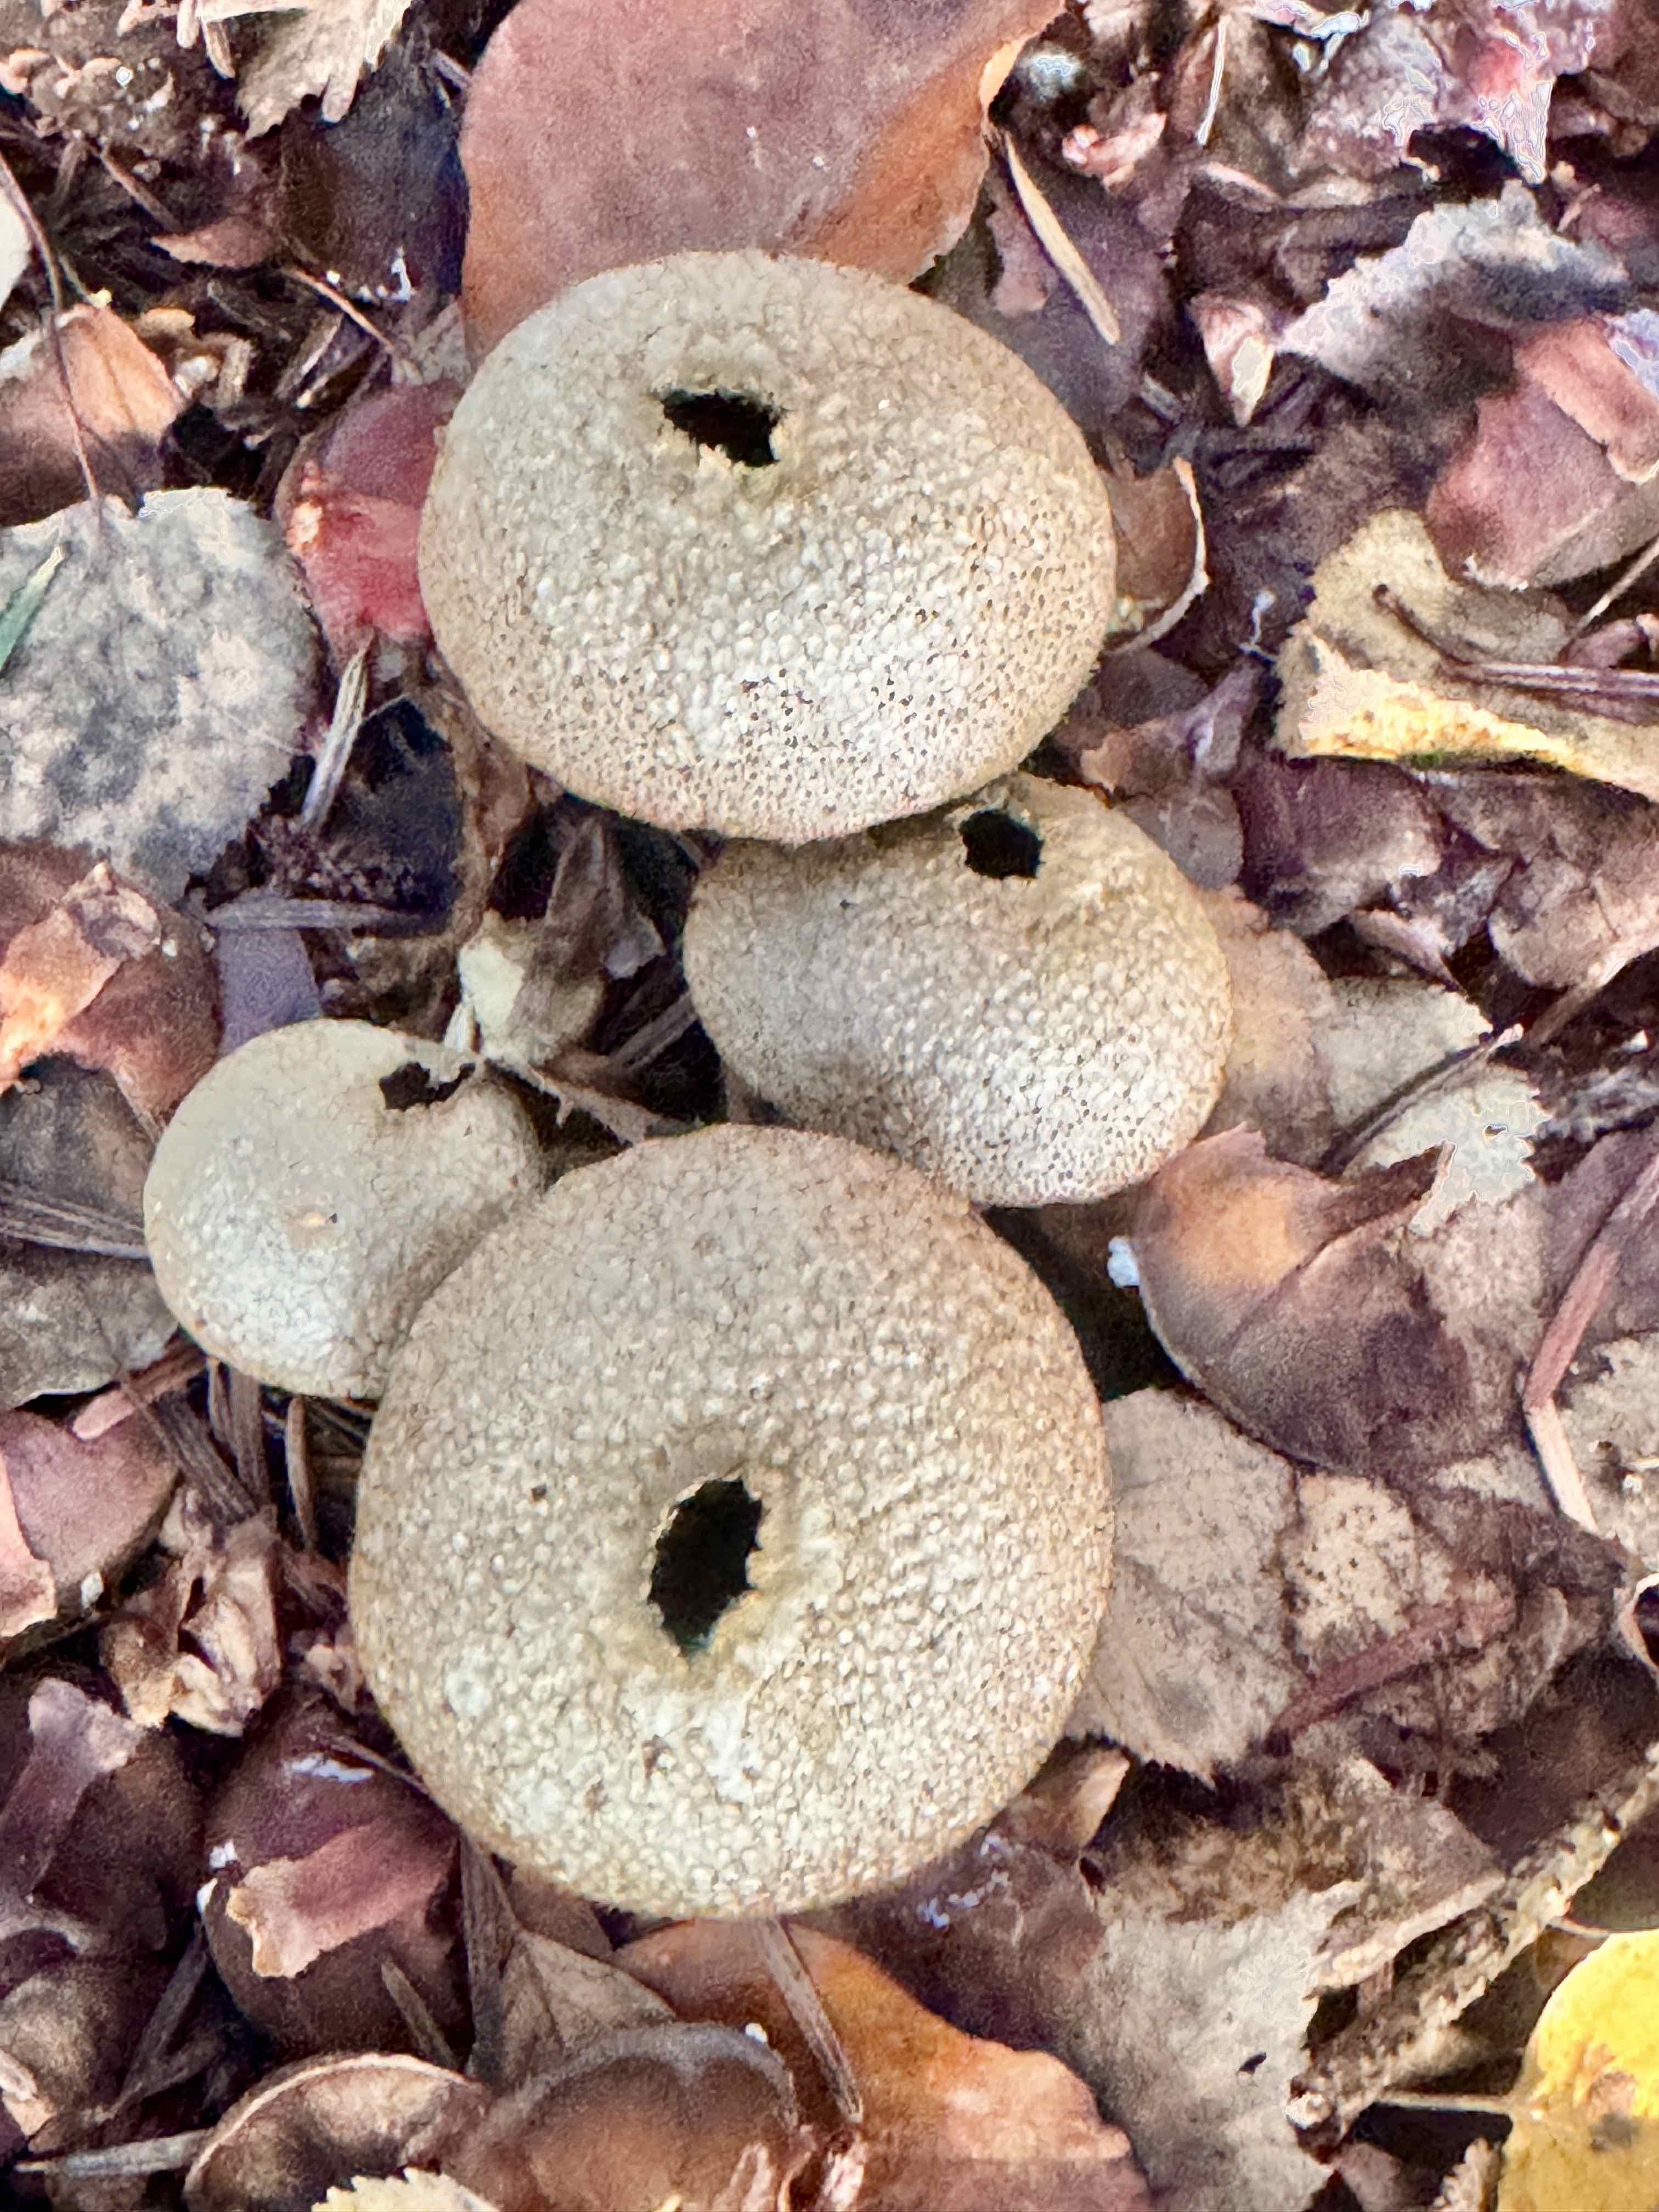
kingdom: Fungi
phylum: Basidiomycota
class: Agaricomycetes
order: Agaricales
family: Lycoperdaceae
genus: Lycoperdon
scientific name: Lycoperdon perlatum
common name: krystal-støvbold
